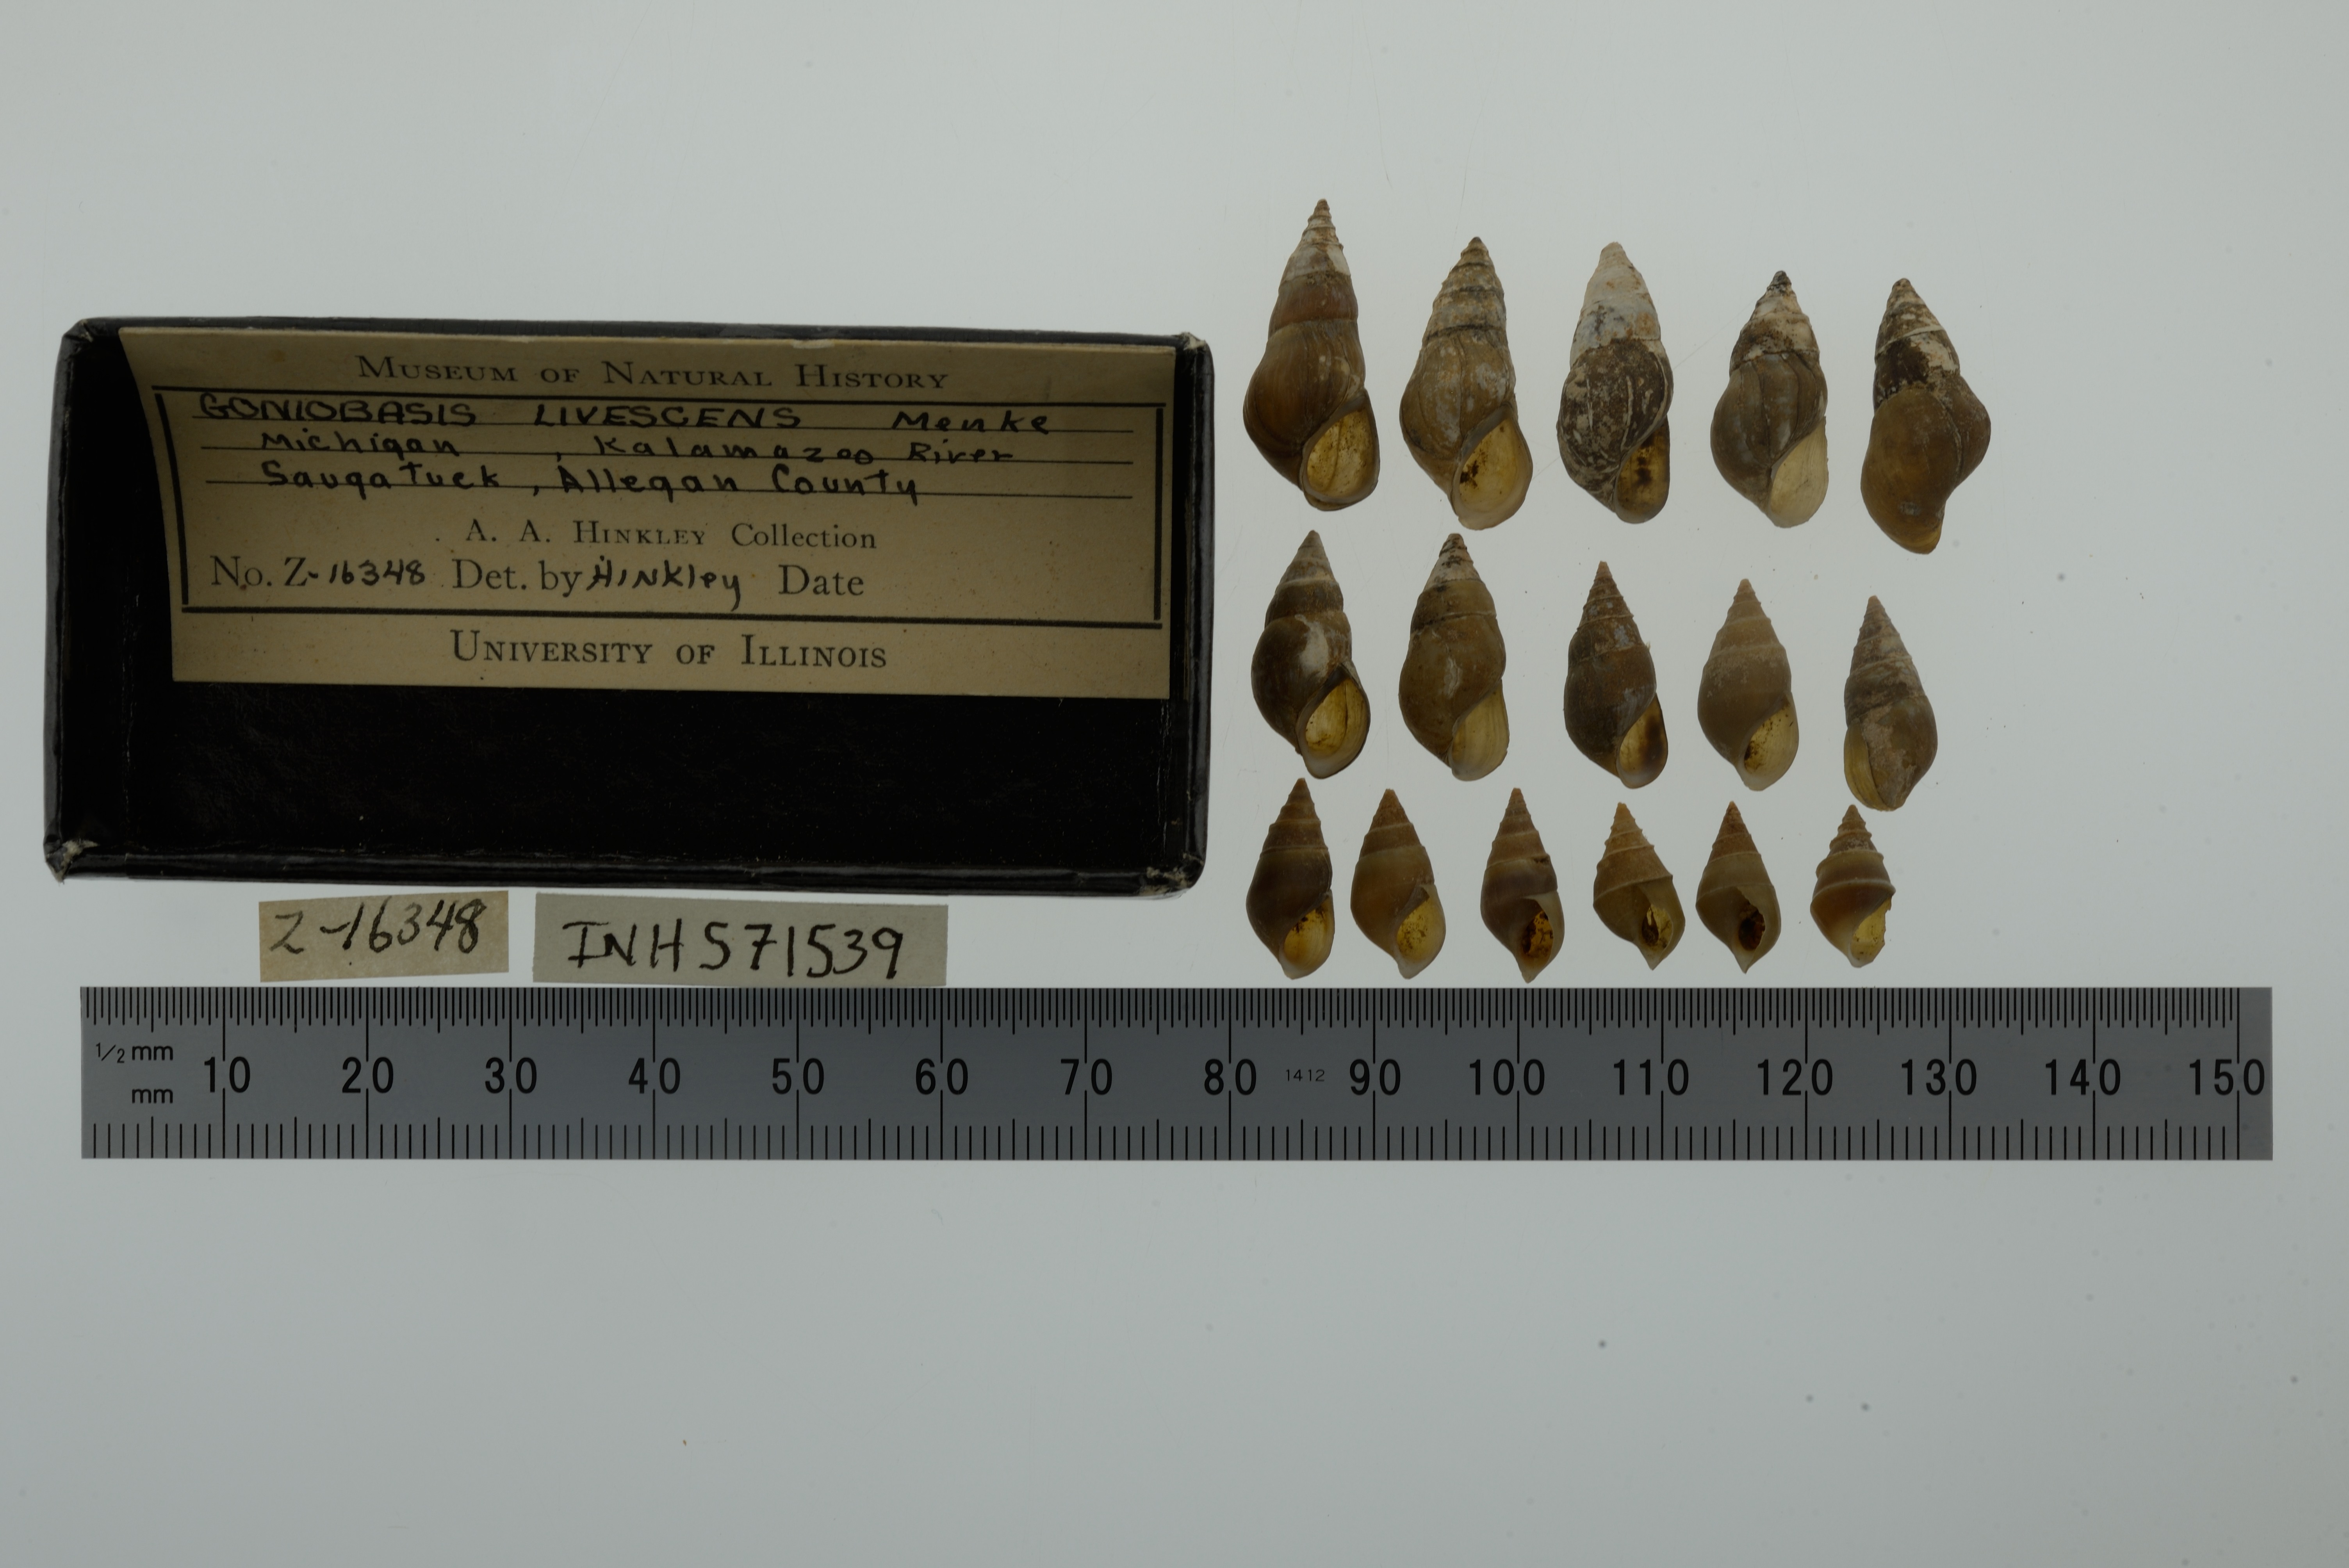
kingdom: Animalia
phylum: Mollusca
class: Gastropoda
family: Pleuroceridae
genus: Elimia
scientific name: Elimia livescens
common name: Liver elimia
